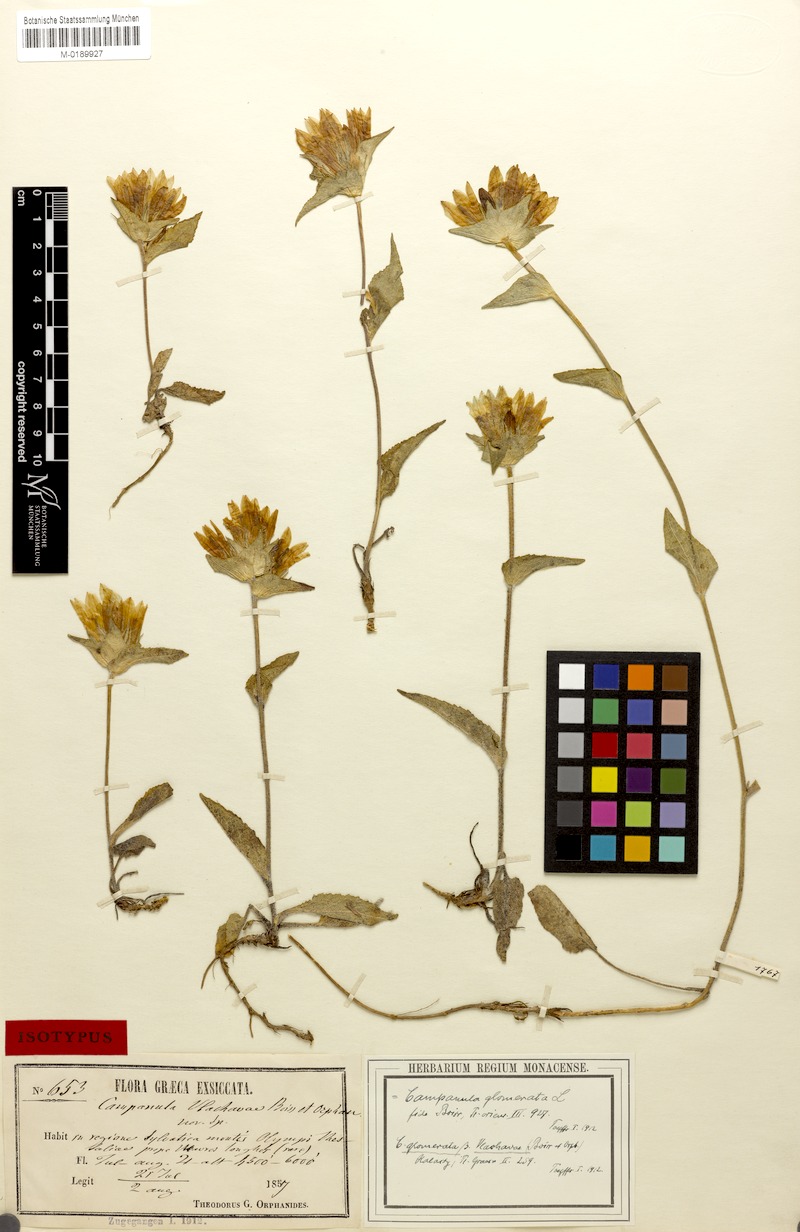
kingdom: Plantae
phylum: Tracheophyta
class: Magnoliopsida
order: Asterales
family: Campanulaceae
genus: Campanula
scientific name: Campanula glomerata
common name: Clustered bellflower
